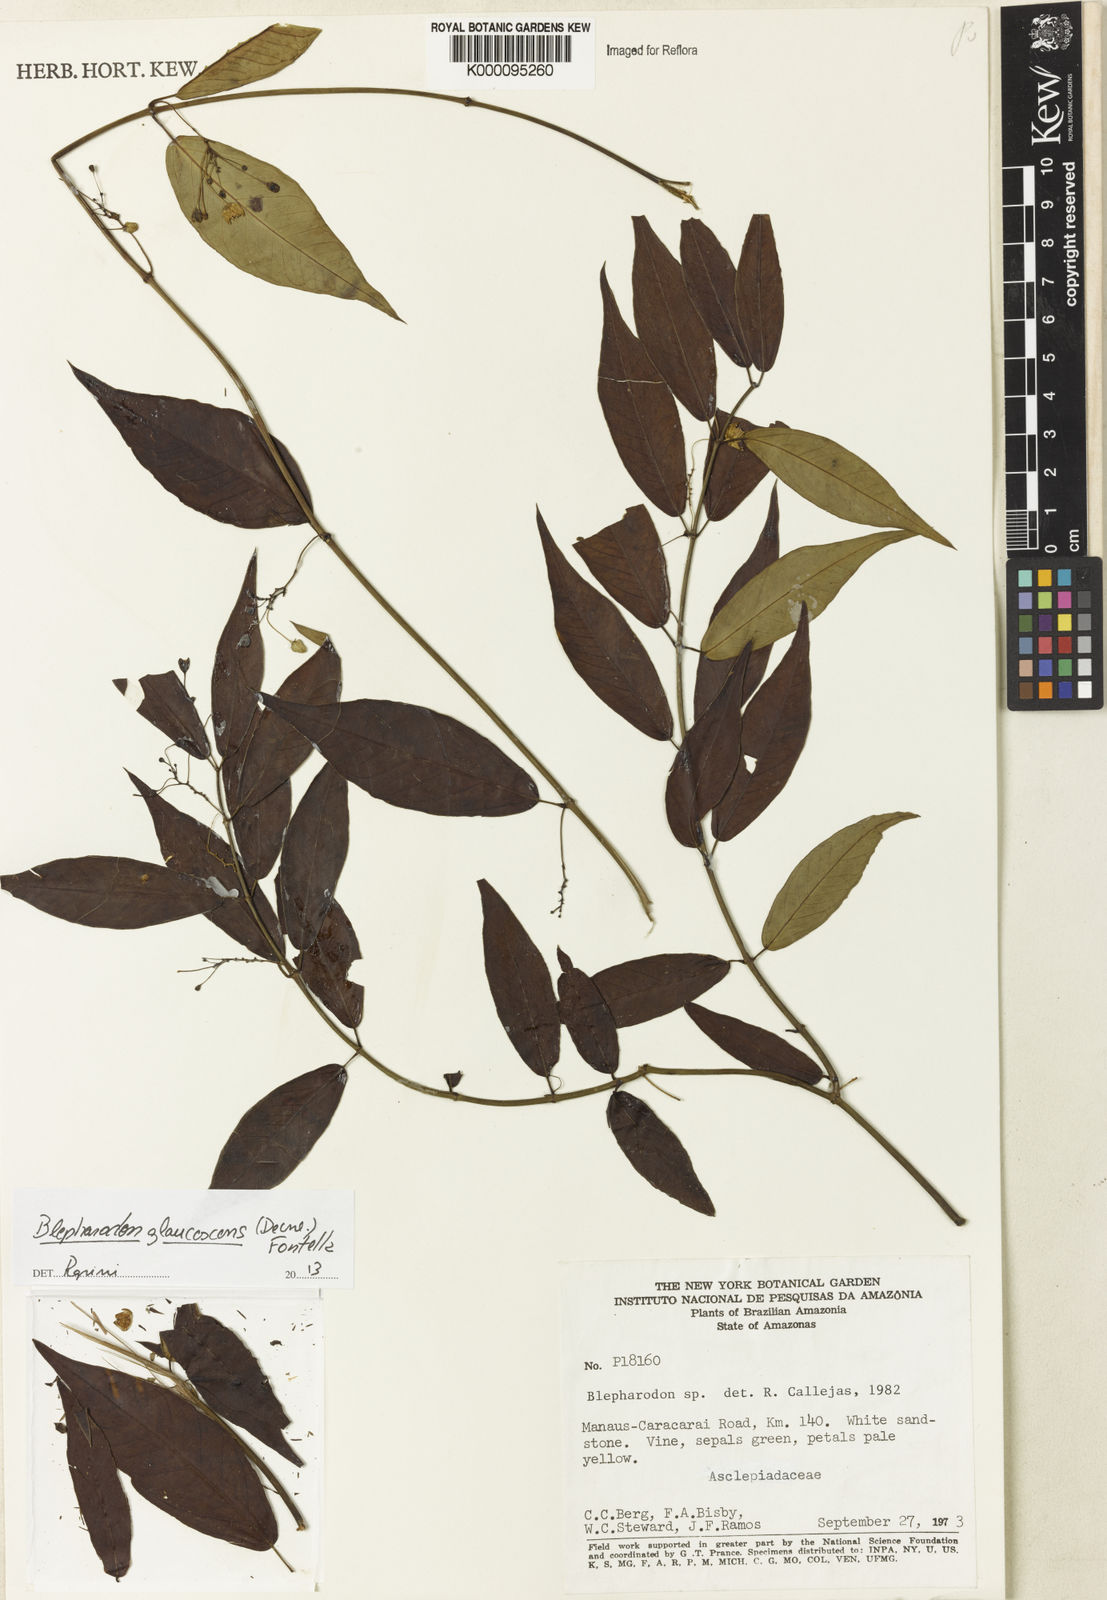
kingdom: Plantae
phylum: Tracheophyta
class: Magnoliopsida
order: Gentianales
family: Apocynaceae
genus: Blepharodon
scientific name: Blepharodon glaucescens
